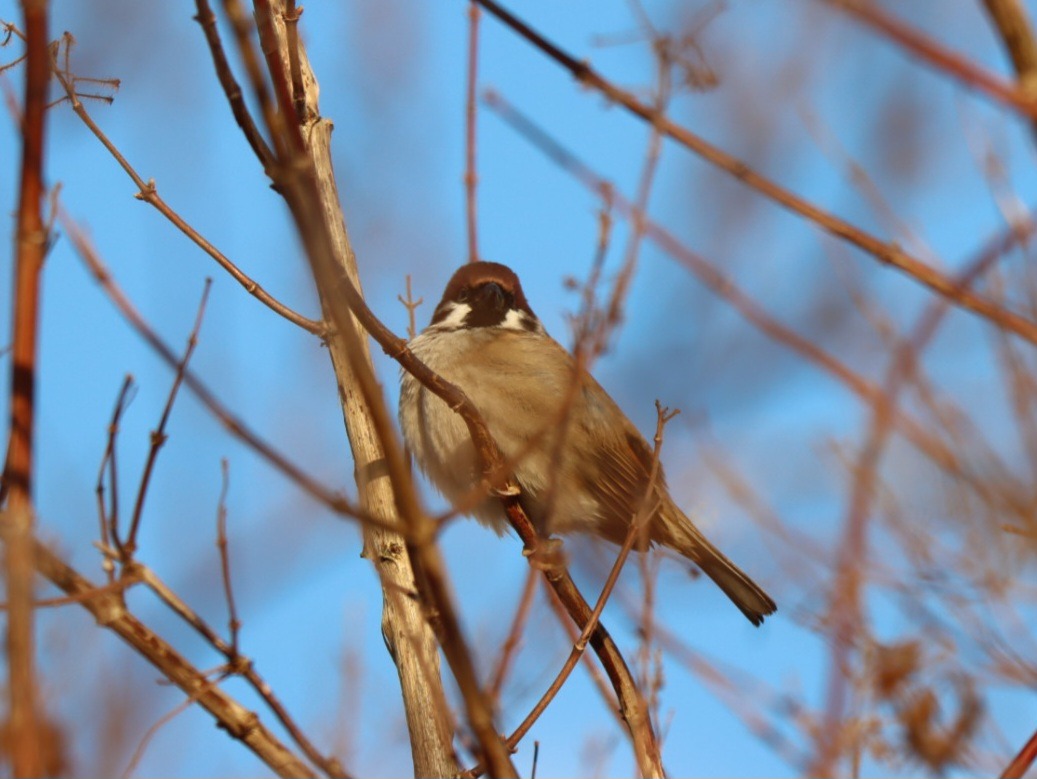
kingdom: Animalia
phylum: Chordata
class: Aves
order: Passeriformes
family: Passeridae
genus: Passer
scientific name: Passer montanus
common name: Skovspurv
